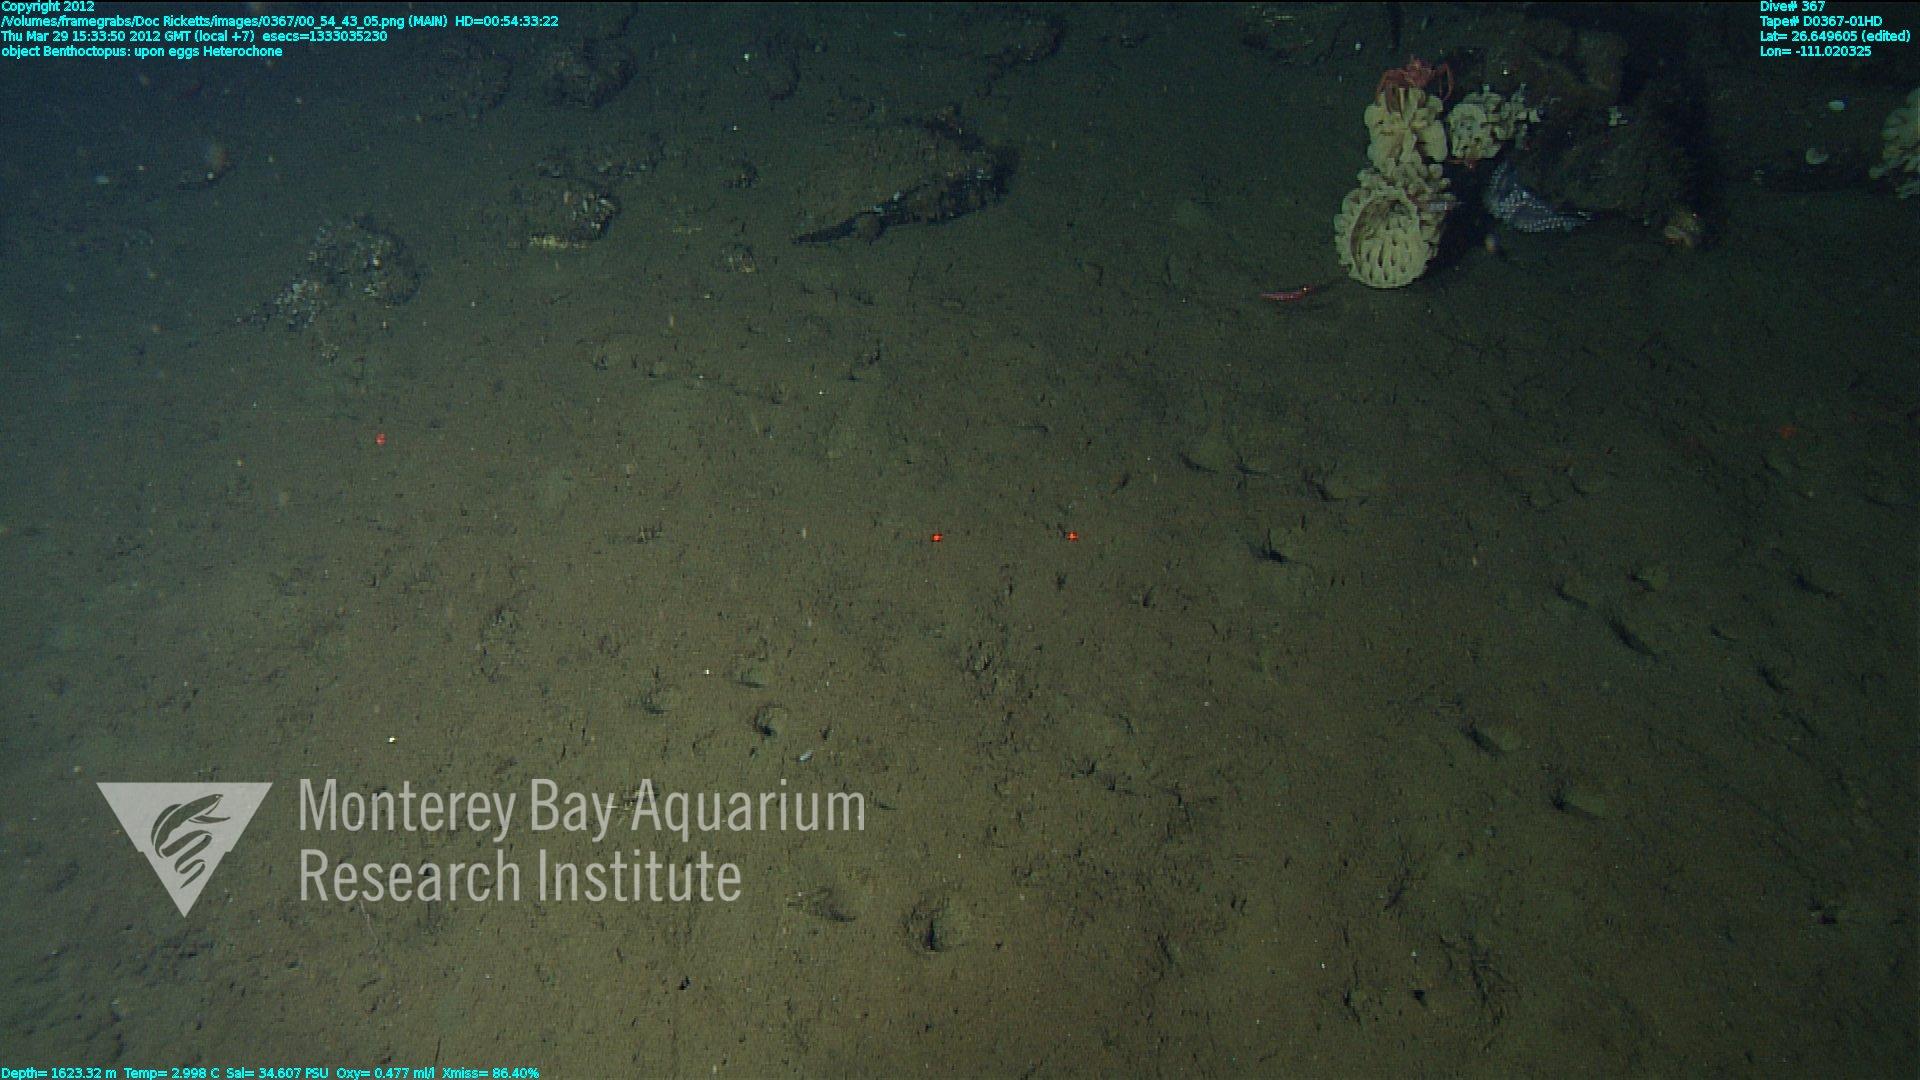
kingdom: Animalia
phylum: Porifera
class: Hexactinellida
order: Sceptrulophora
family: Aphrocallistidae
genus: Heterochone
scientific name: Heterochone
